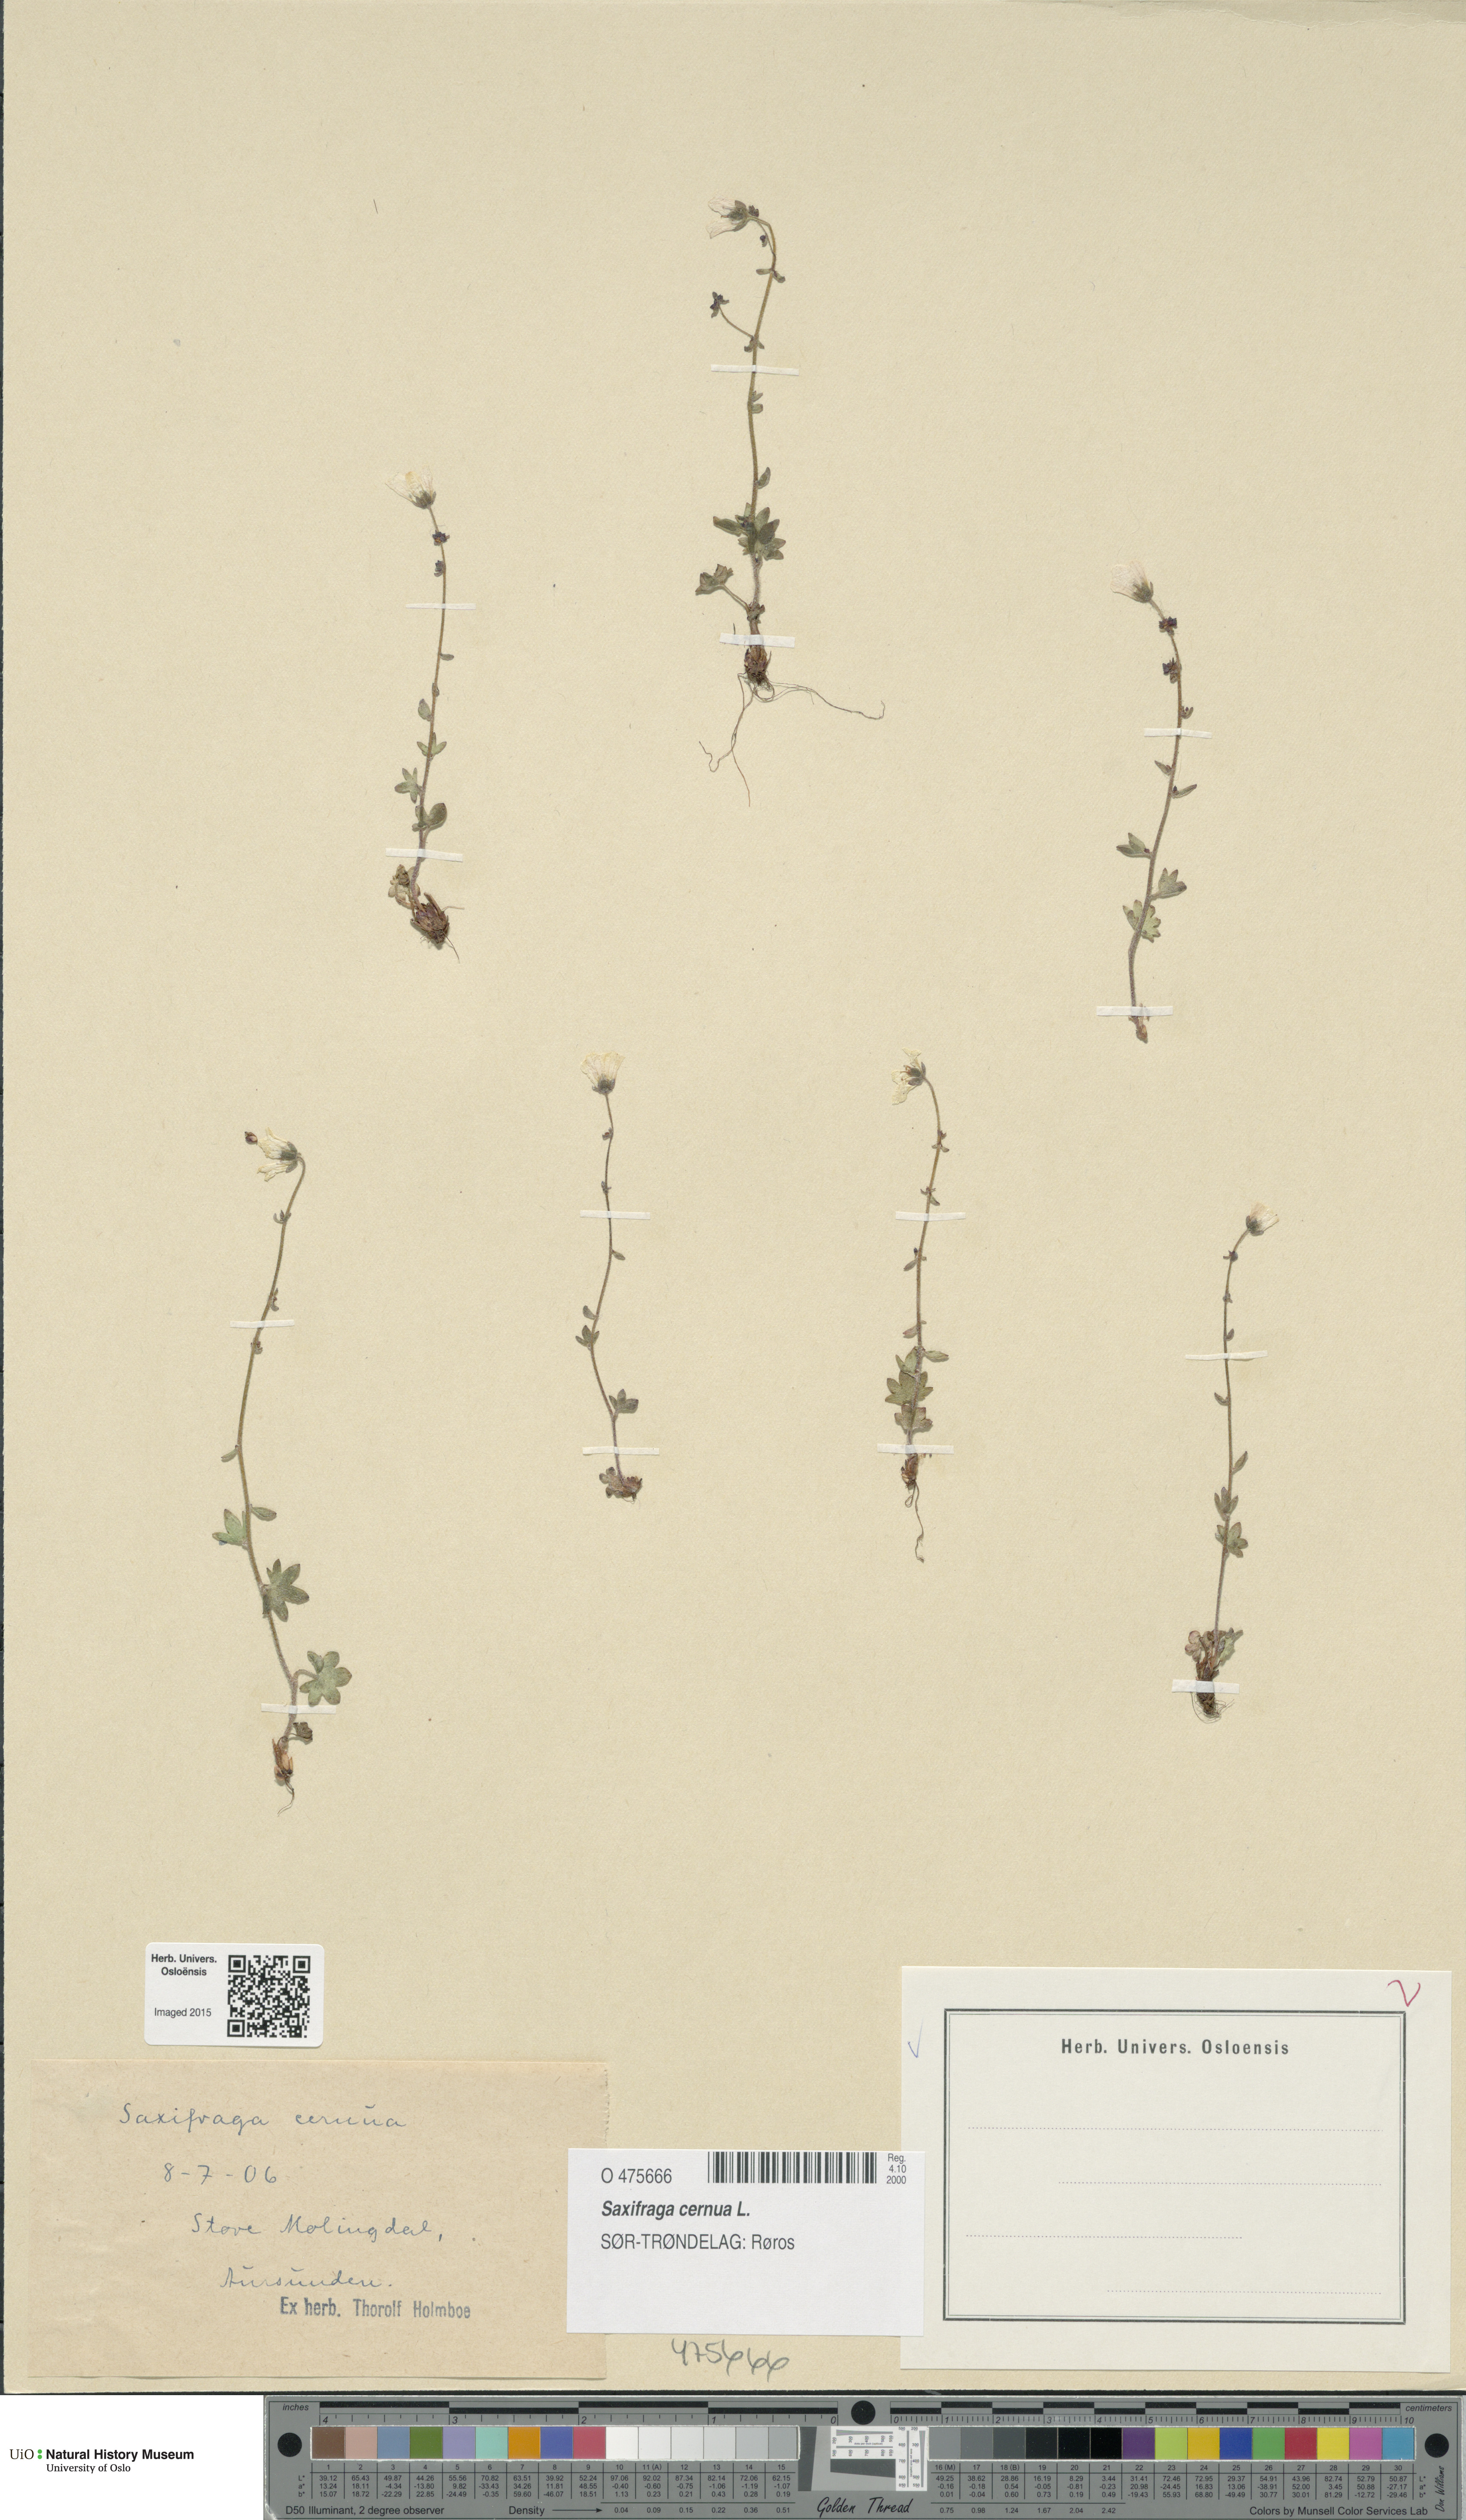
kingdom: Plantae
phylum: Tracheophyta
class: Magnoliopsida
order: Saxifragales
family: Saxifragaceae
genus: Saxifraga
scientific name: Saxifraga cernua
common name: Drooping saxifrage
